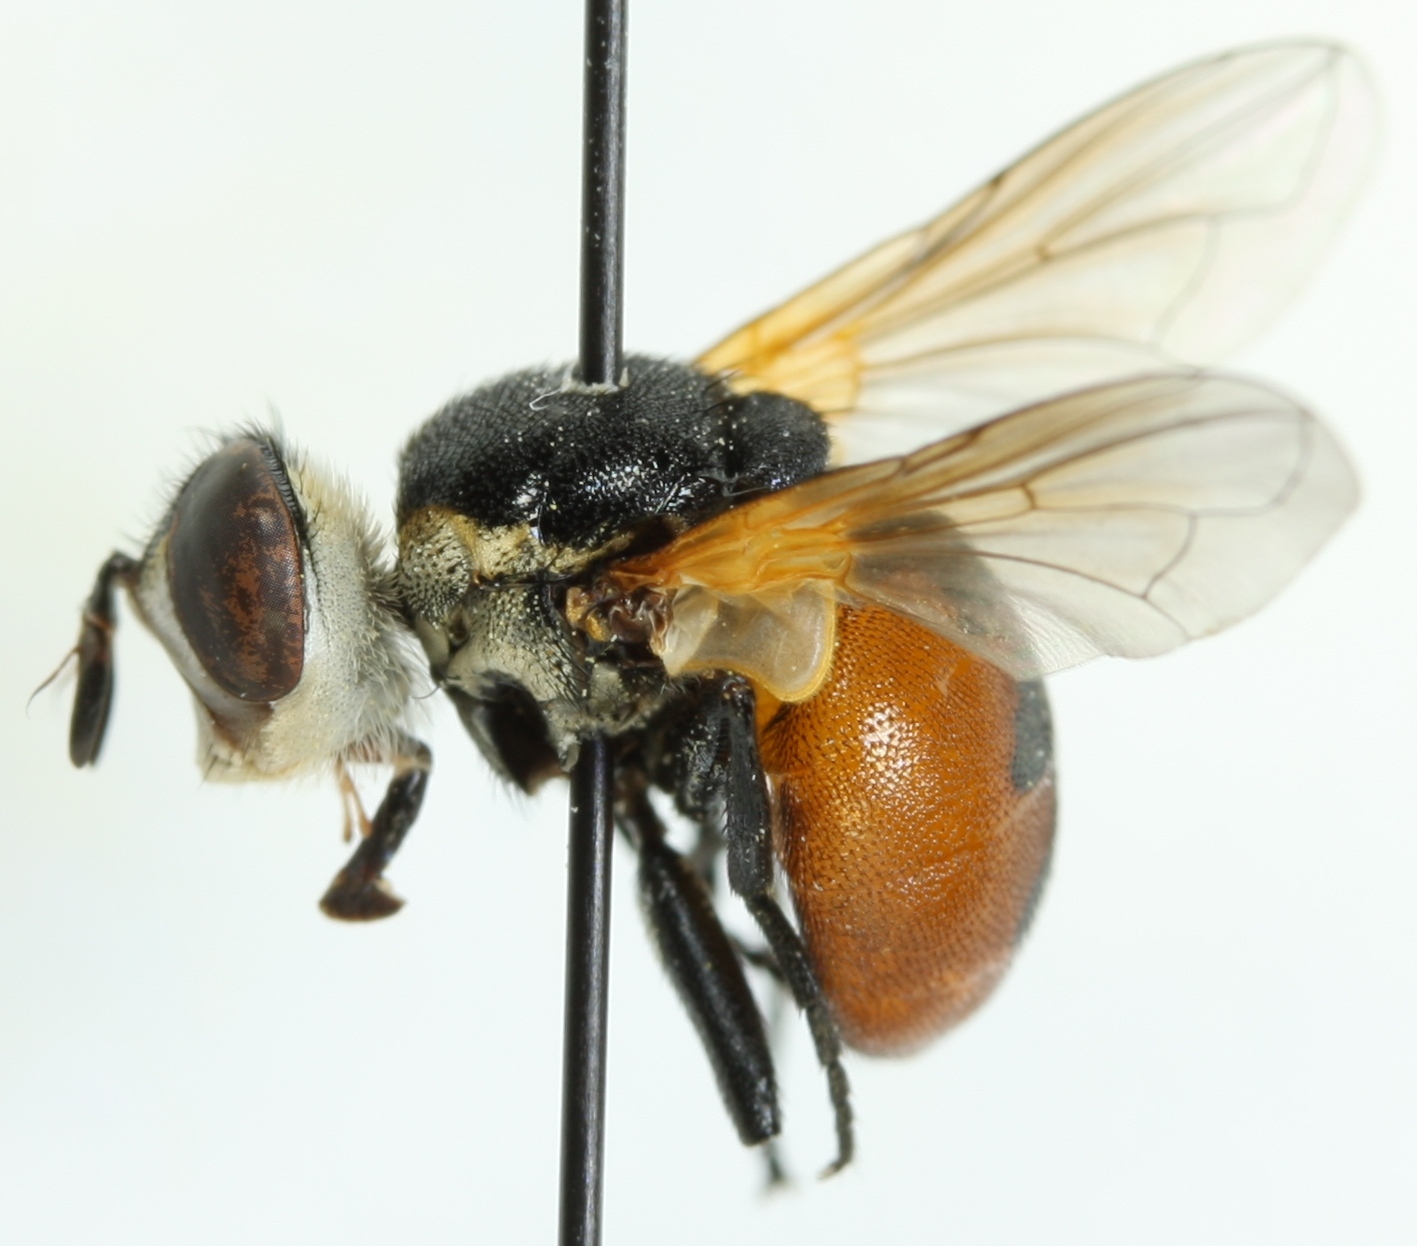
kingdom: Animalia
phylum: Arthropoda
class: Insecta
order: Diptera
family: Tachinidae
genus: Gymnosoma
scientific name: Gymnosoma nudifrons
